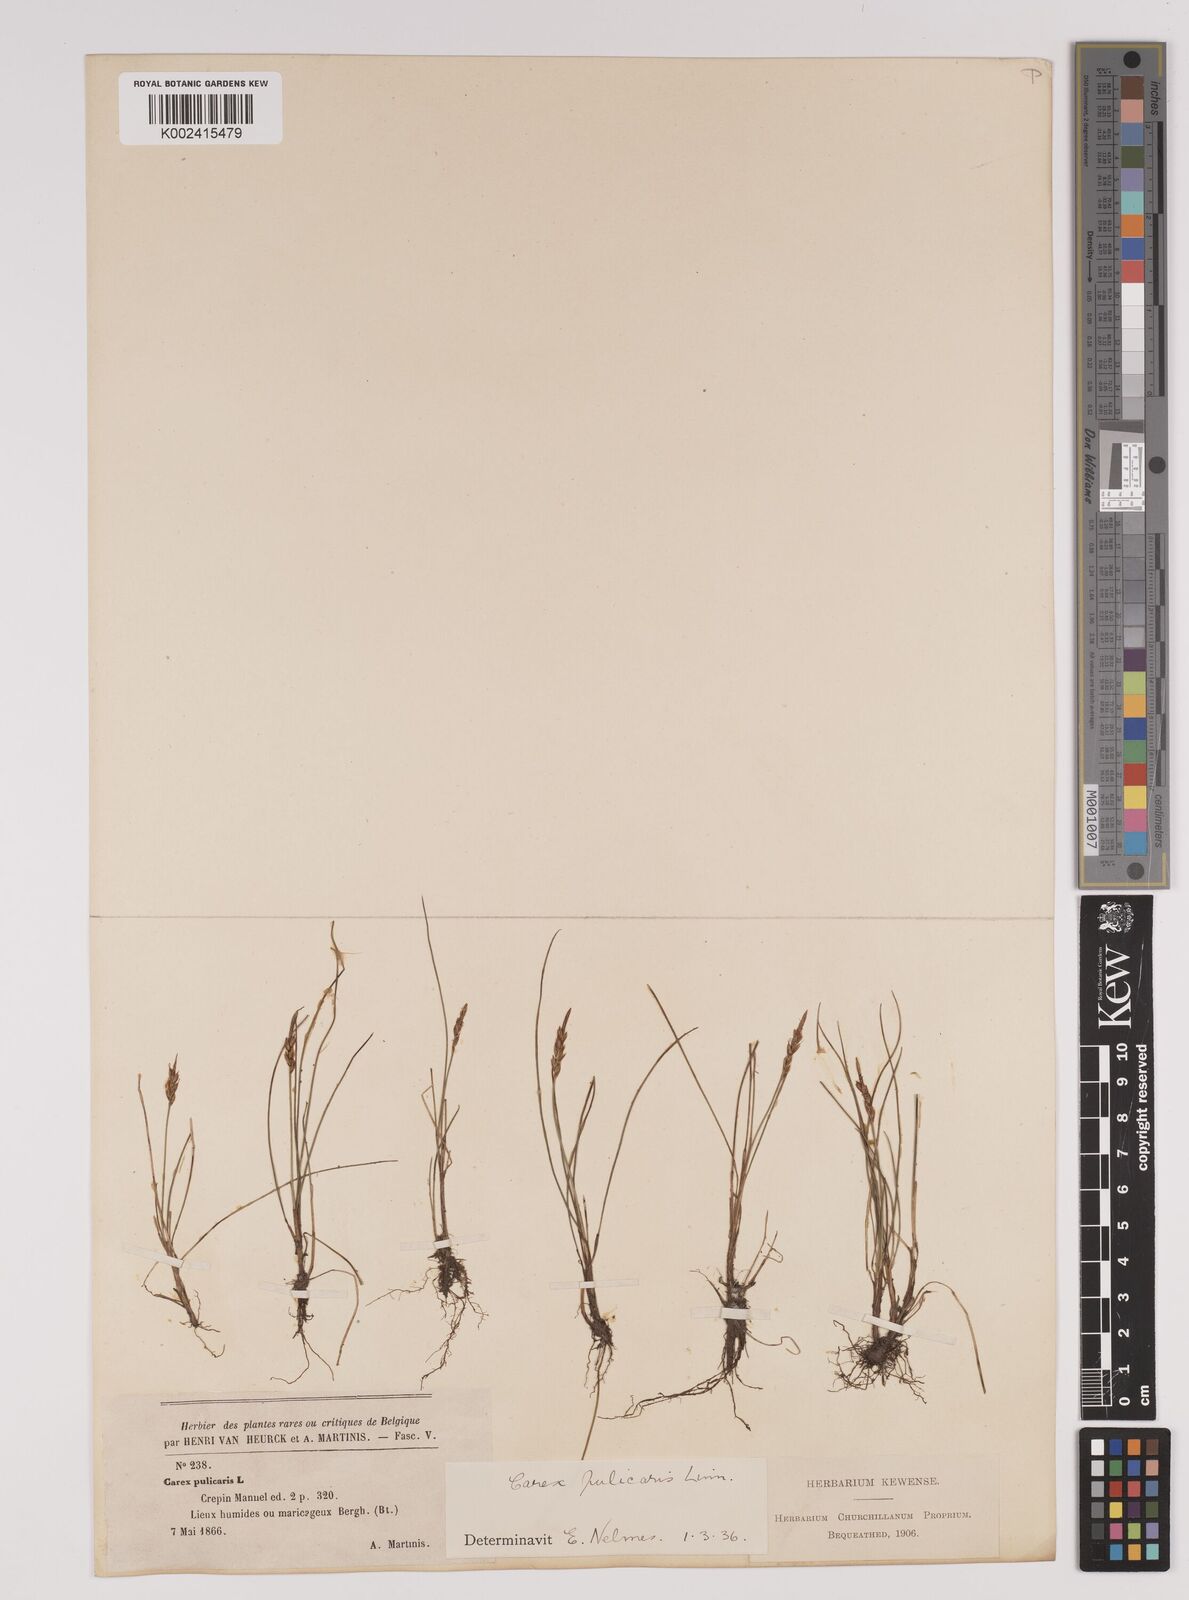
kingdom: Plantae
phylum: Tracheophyta
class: Liliopsida
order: Poales
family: Cyperaceae
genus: Carex
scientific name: Carex pulicaris
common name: Flea sedge
